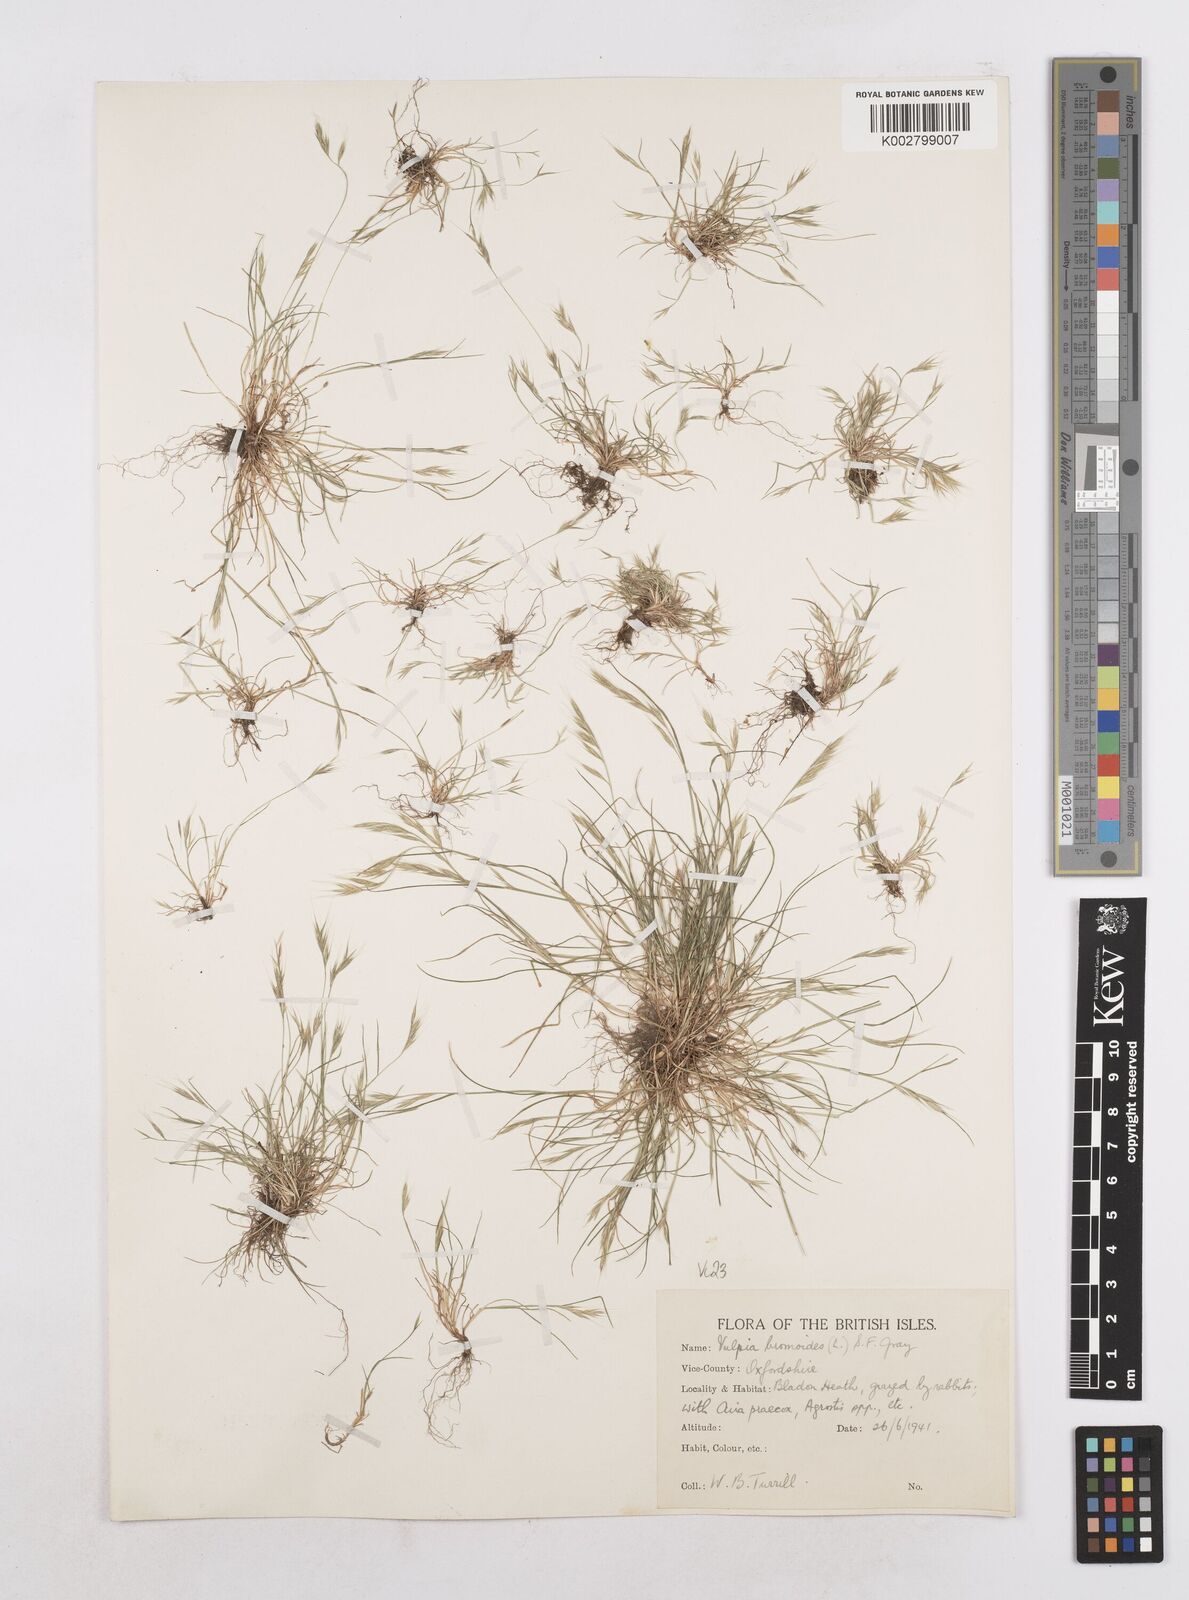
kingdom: Plantae
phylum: Tracheophyta
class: Liliopsida
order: Poales
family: Poaceae
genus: Festuca
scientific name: Festuca bromoides
